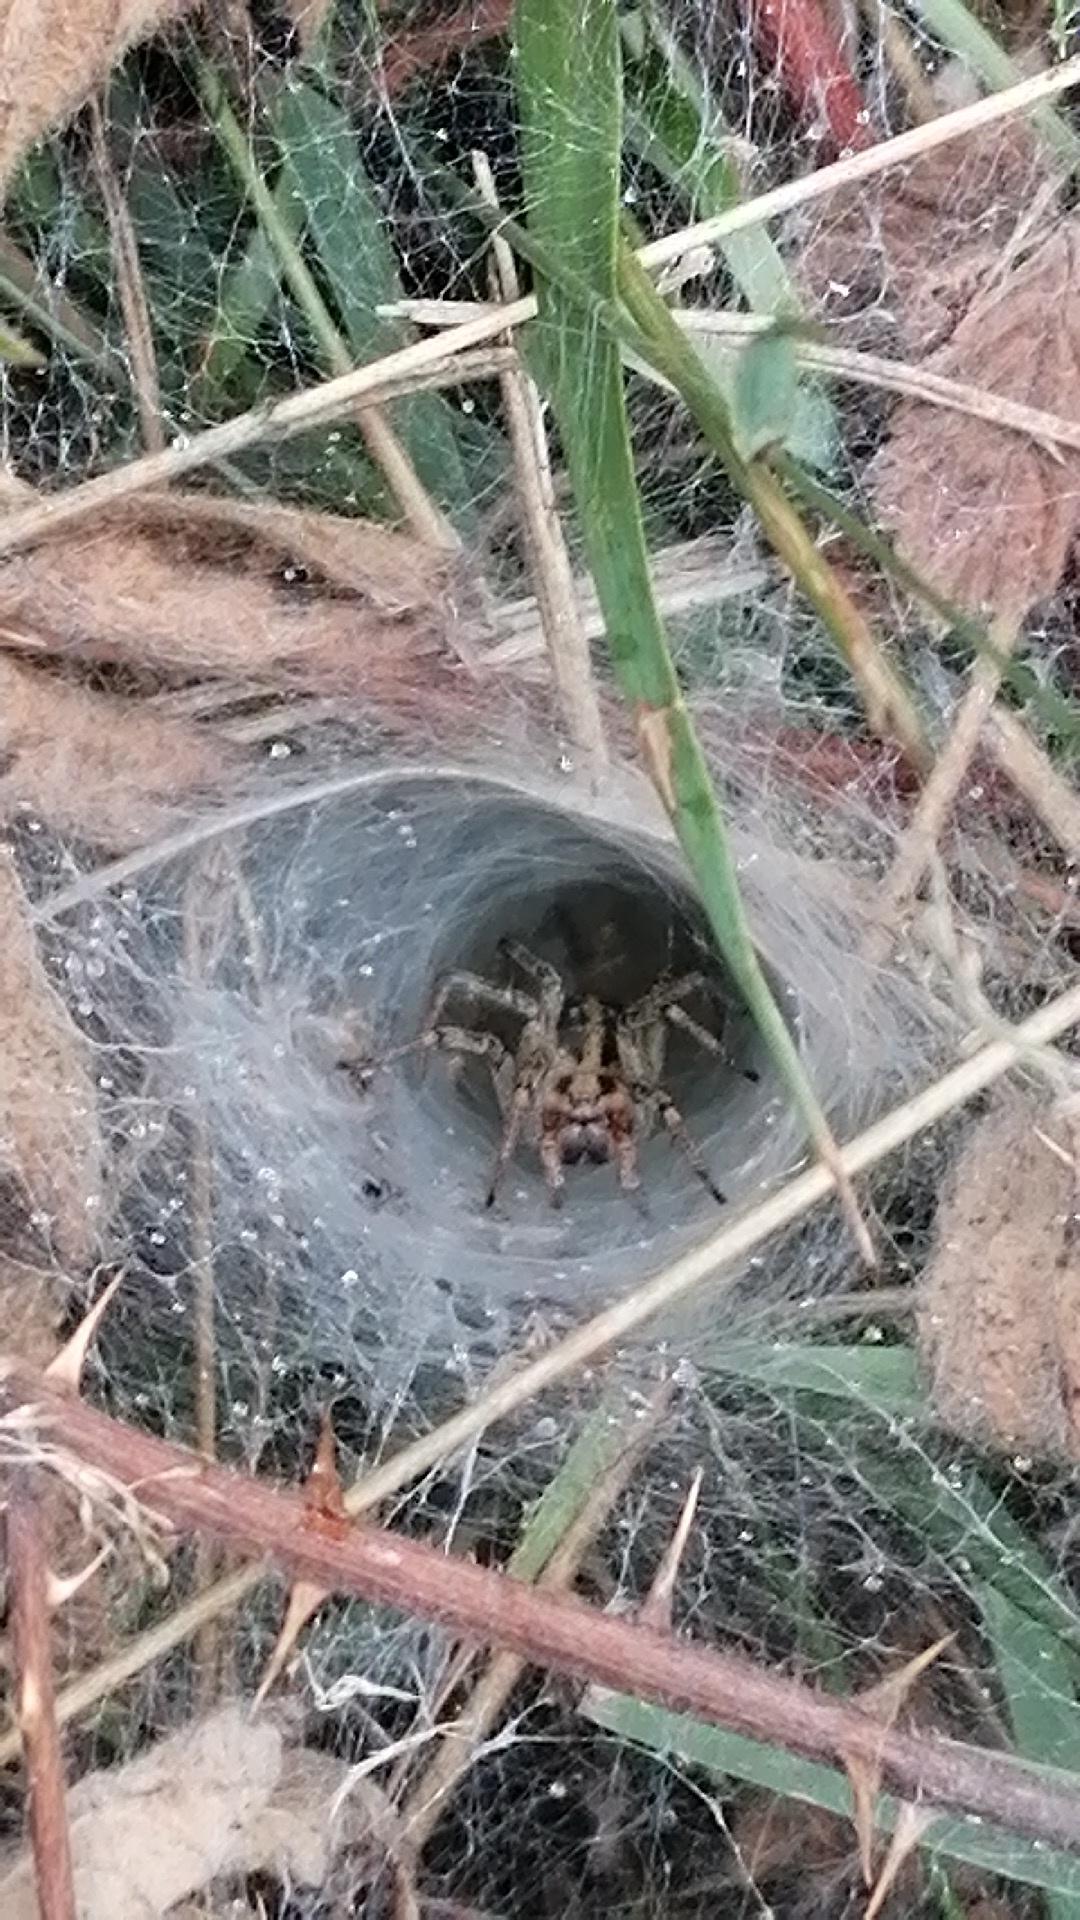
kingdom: Animalia
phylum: Arthropoda
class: Arachnida
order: Araneae
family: Agelenidae
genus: Agelena
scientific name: Agelena labyrinthica
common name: Labyrintedderkop
